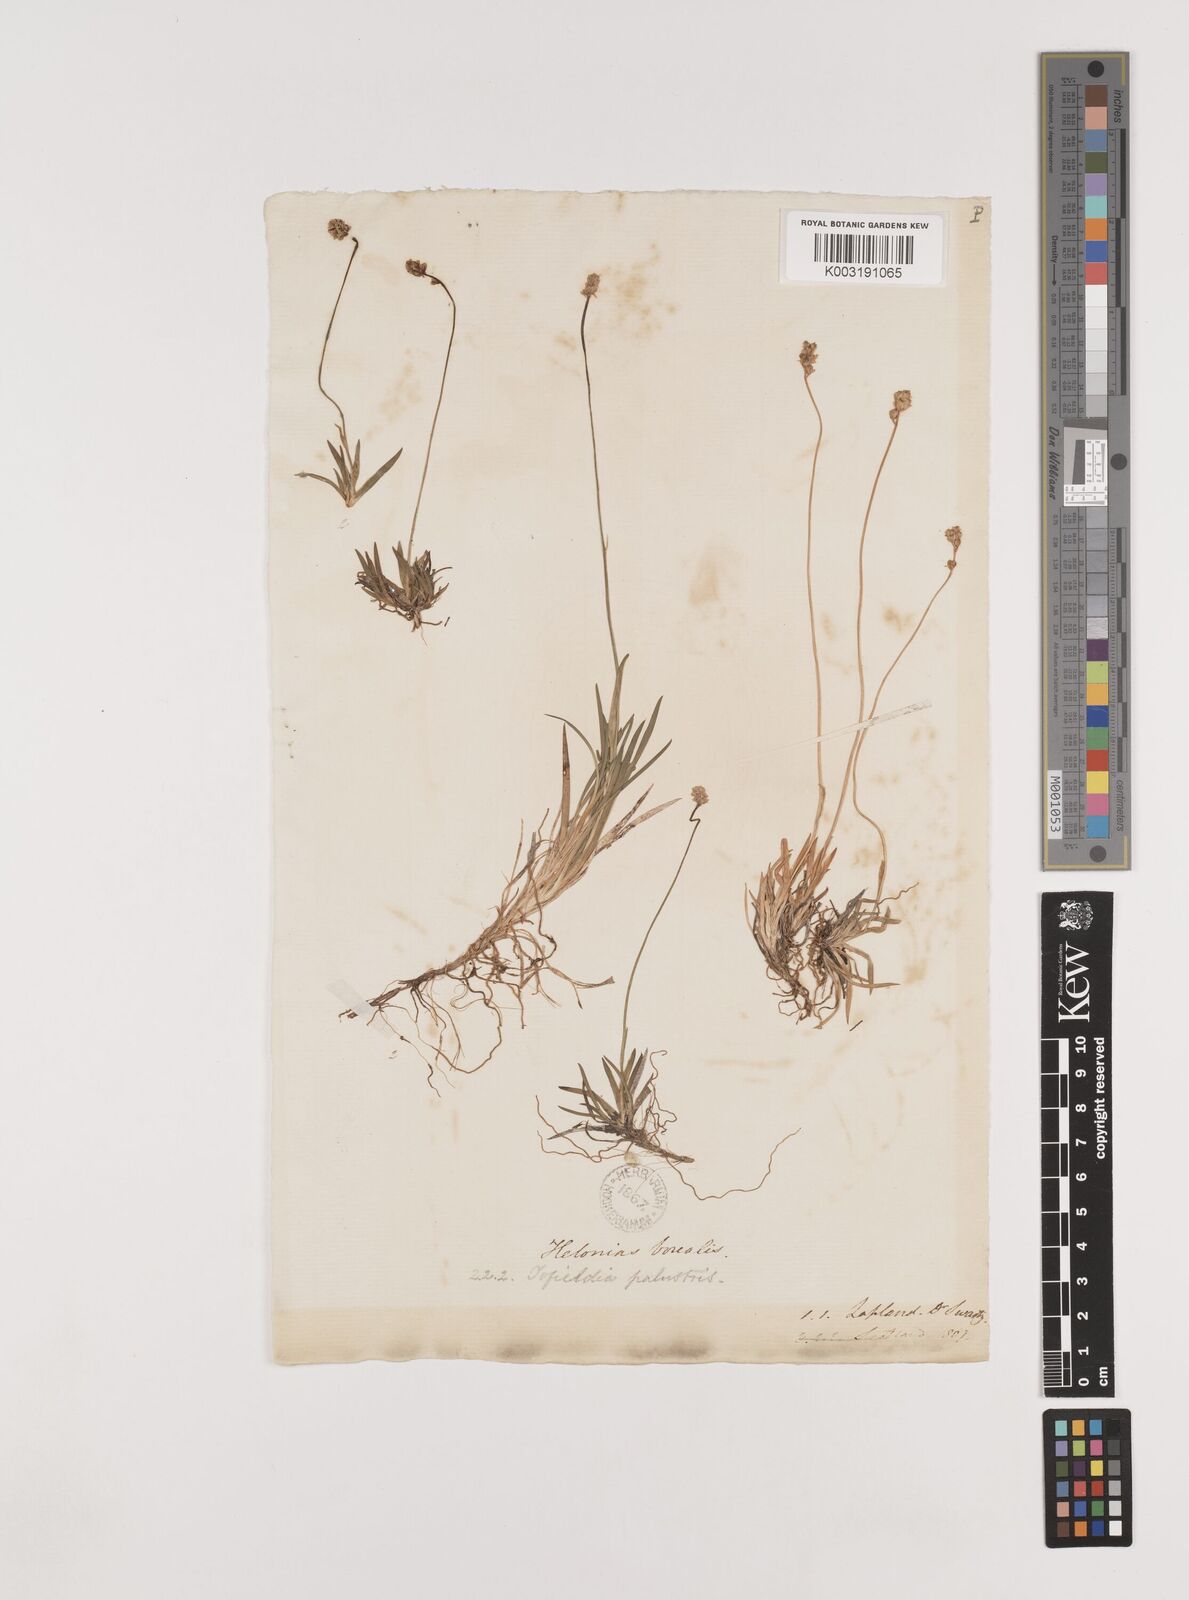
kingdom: Plantae
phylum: Tracheophyta
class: Liliopsida
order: Alismatales
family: Tofieldiaceae
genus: Tofieldia
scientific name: Tofieldia pusilla
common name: Scottish false asphodel
